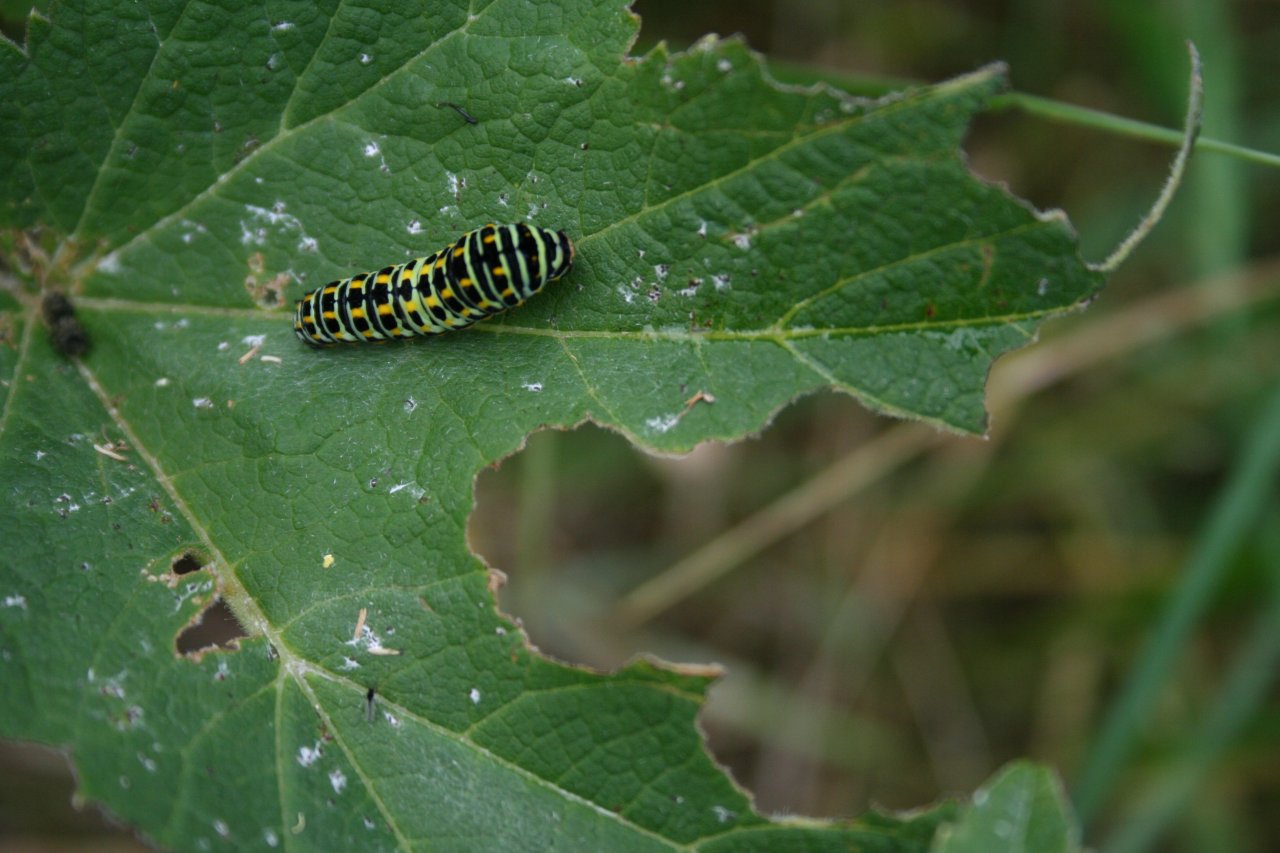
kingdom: Animalia
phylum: Arthropoda
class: Insecta
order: Lepidoptera
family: Papilionidae
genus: Papilio
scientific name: Papilio machaon
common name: Old World Swallowtail
